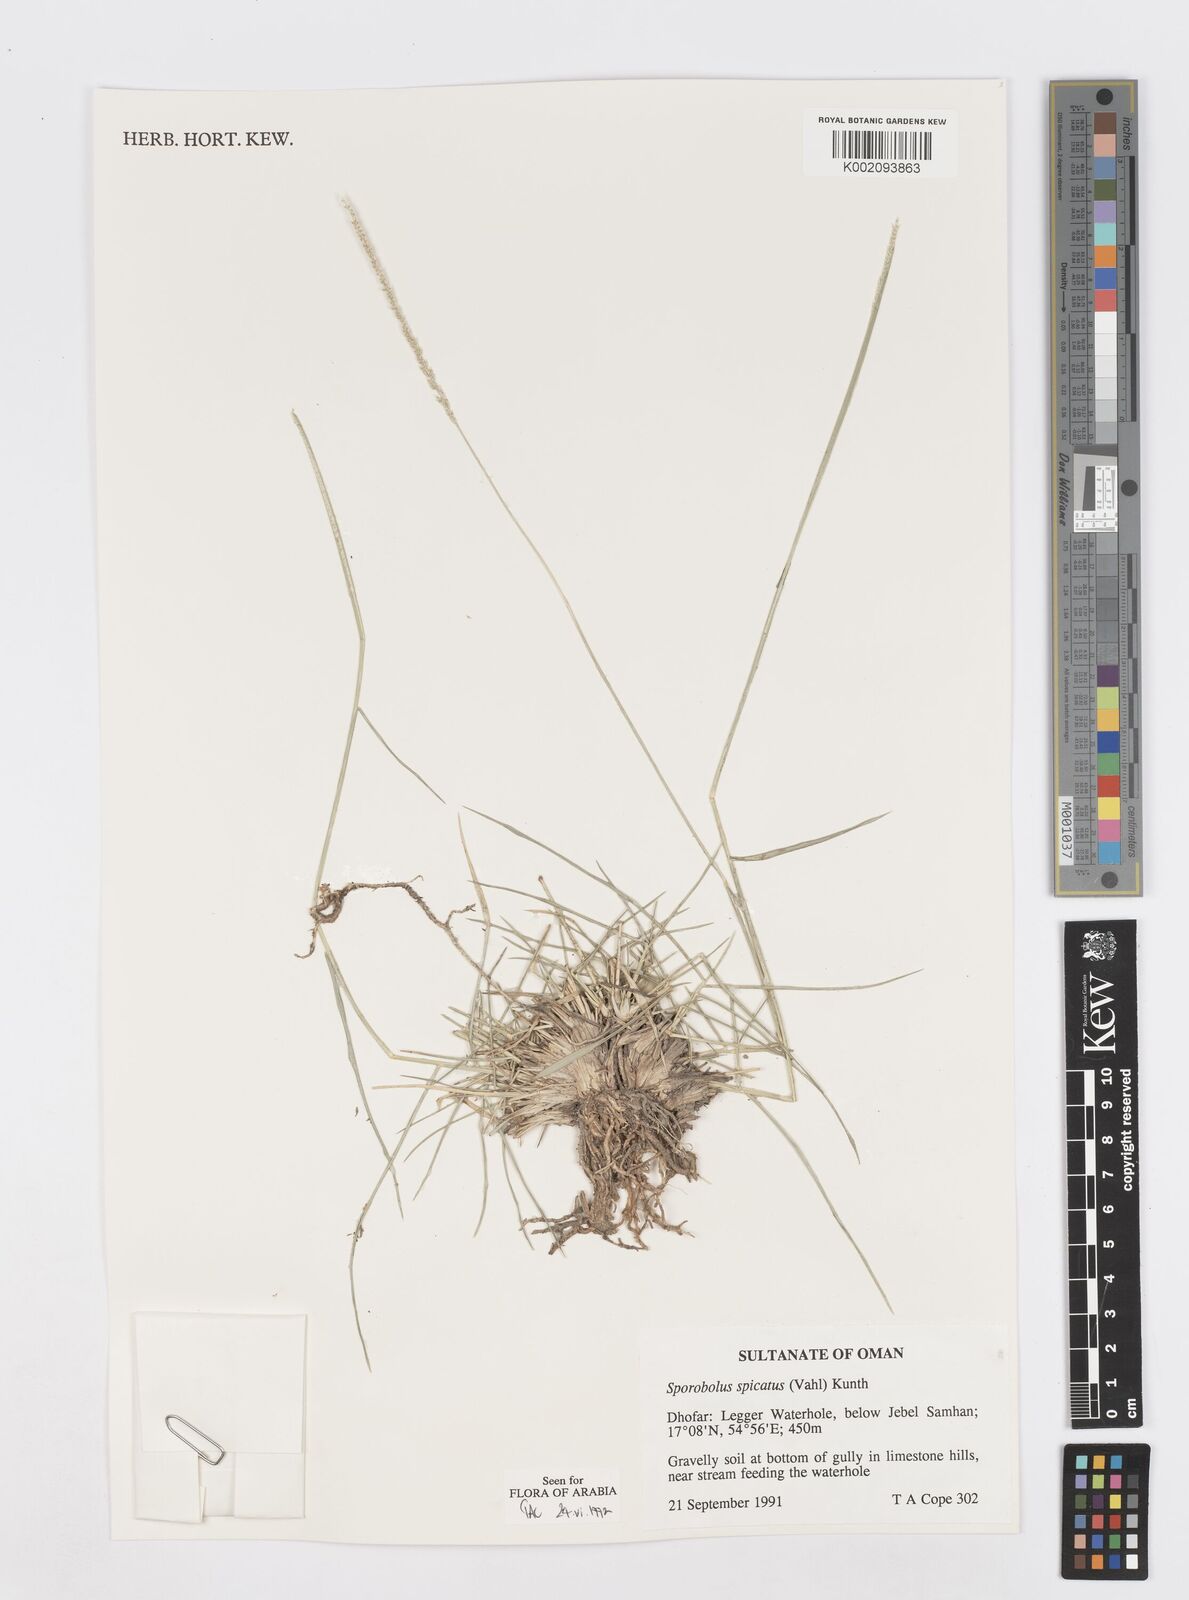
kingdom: Plantae
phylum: Tracheophyta
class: Liliopsida
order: Poales
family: Poaceae
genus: Sporobolus
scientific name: Sporobolus spicatus
